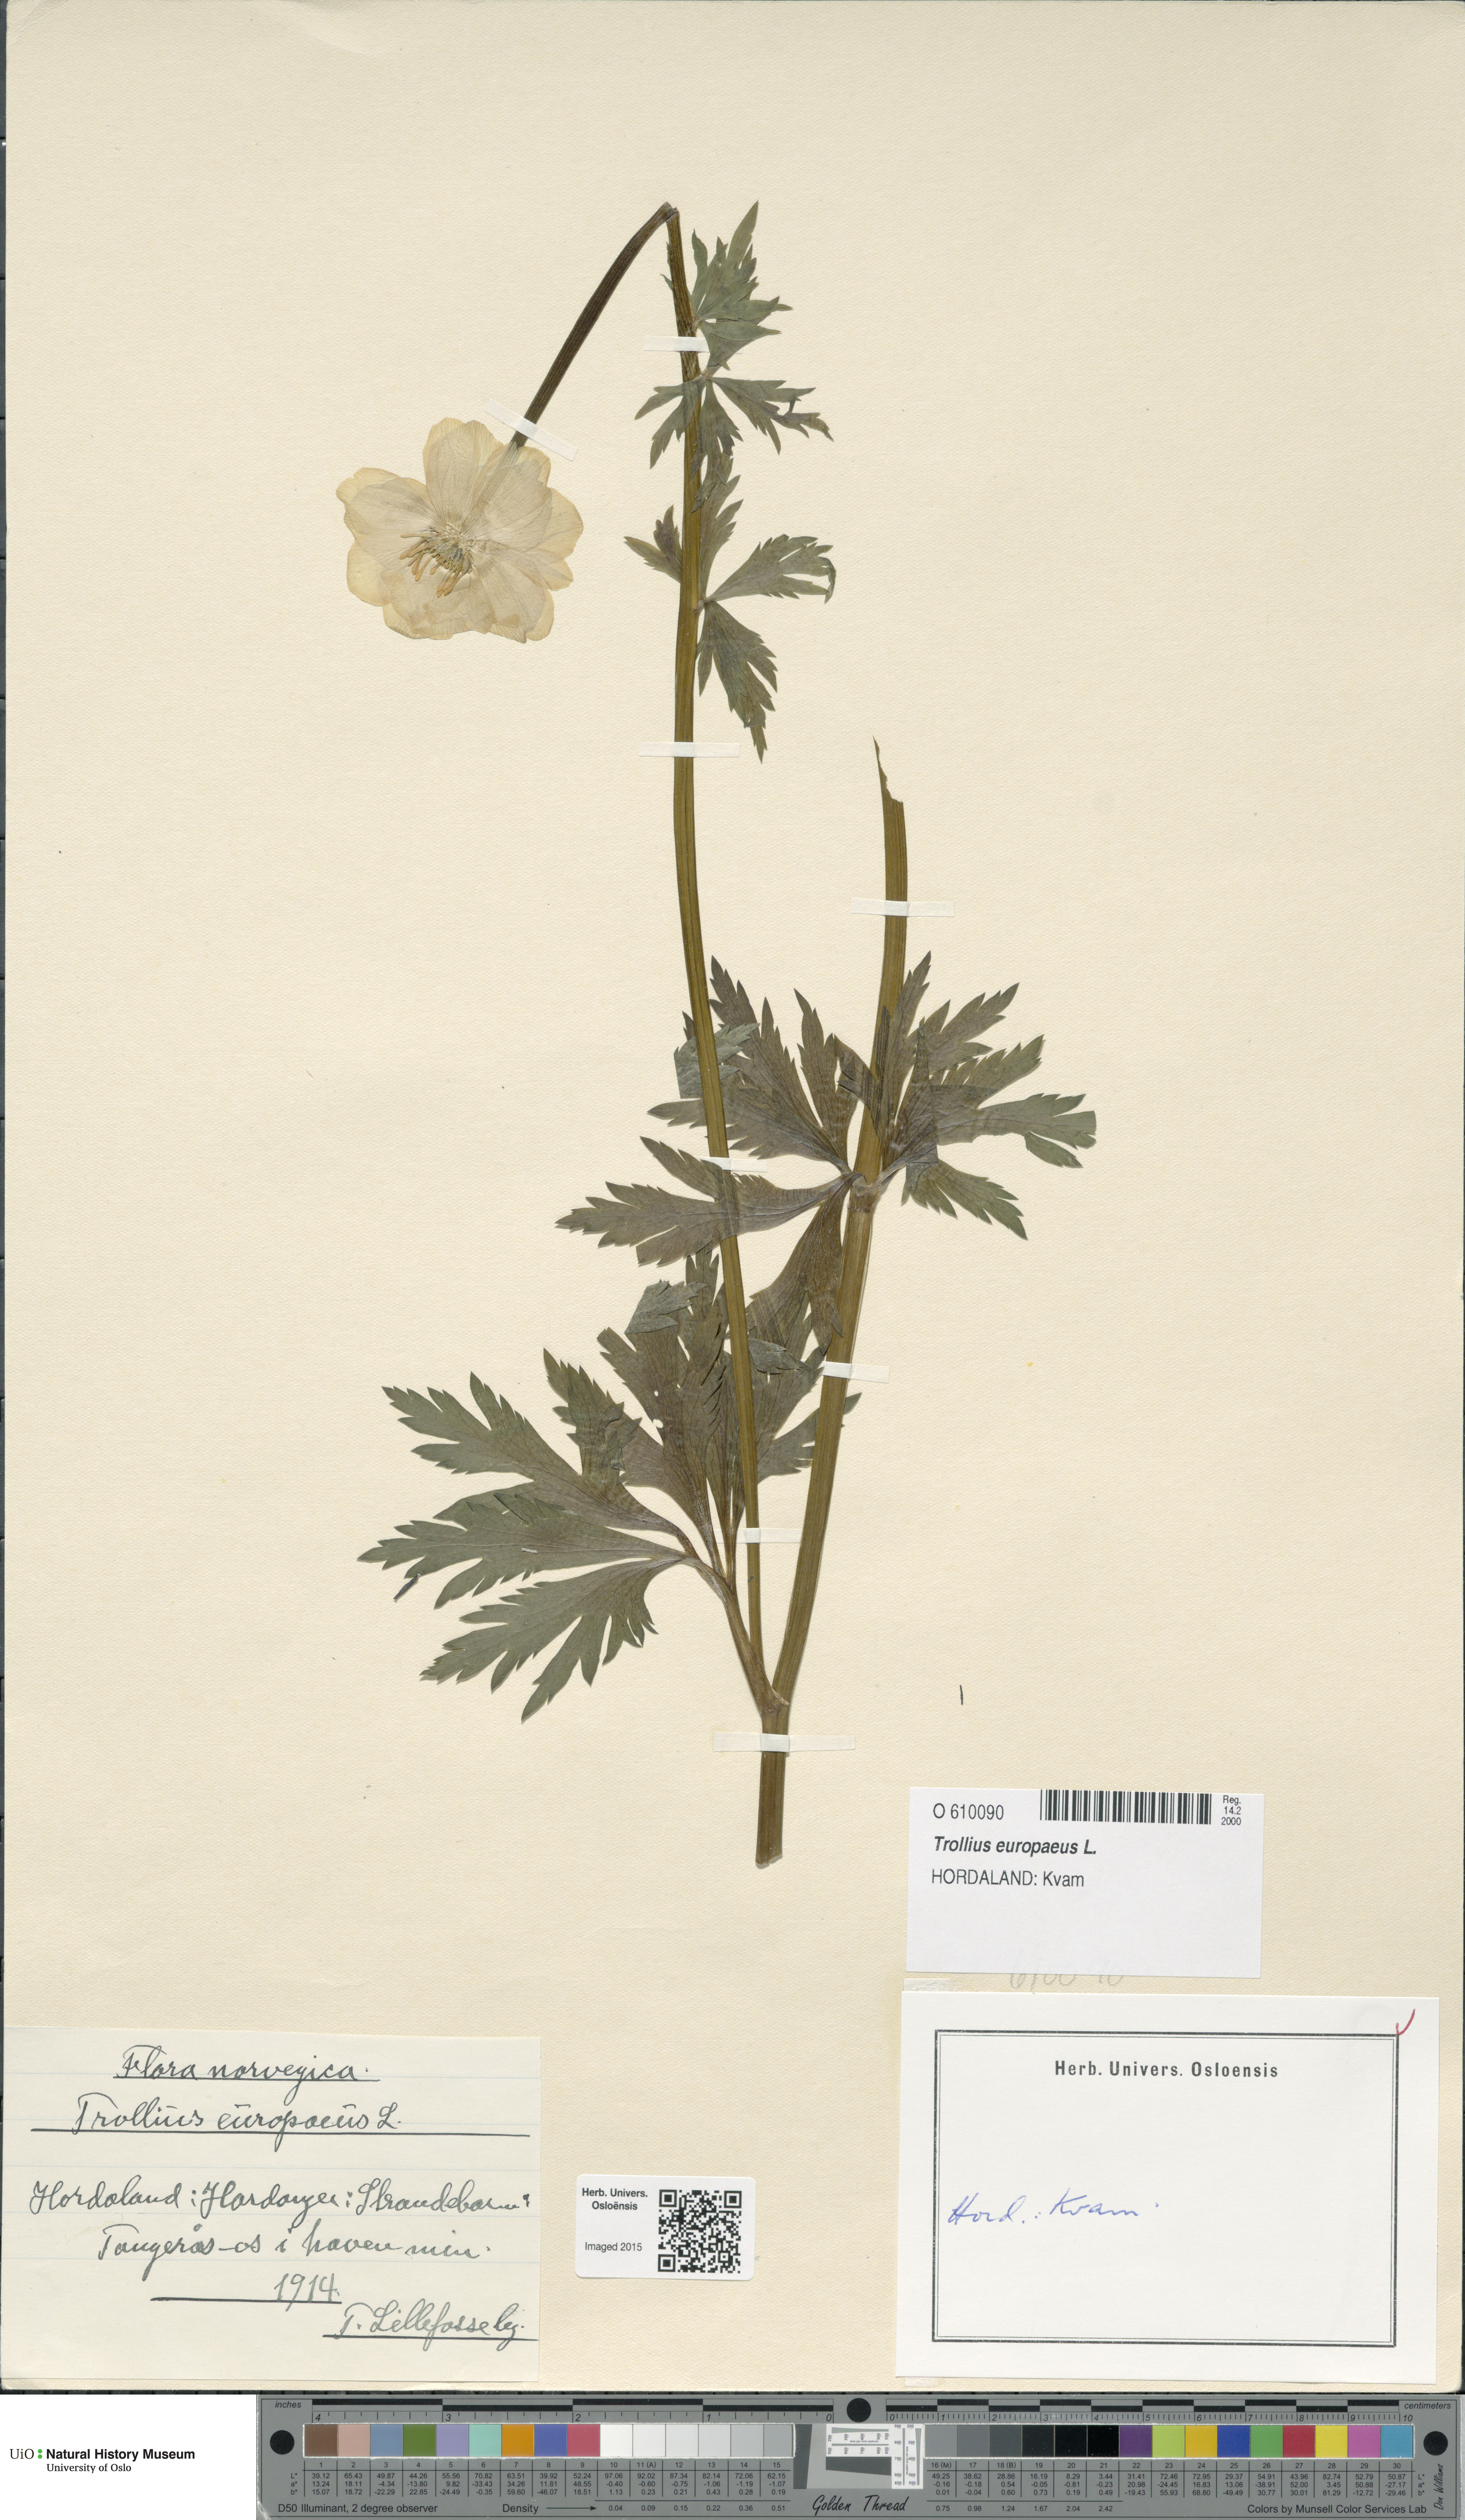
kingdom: Plantae
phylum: Tracheophyta
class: Magnoliopsida
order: Ranunculales
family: Ranunculaceae
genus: Trollius
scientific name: Trollius europaeus
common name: European globeflower
